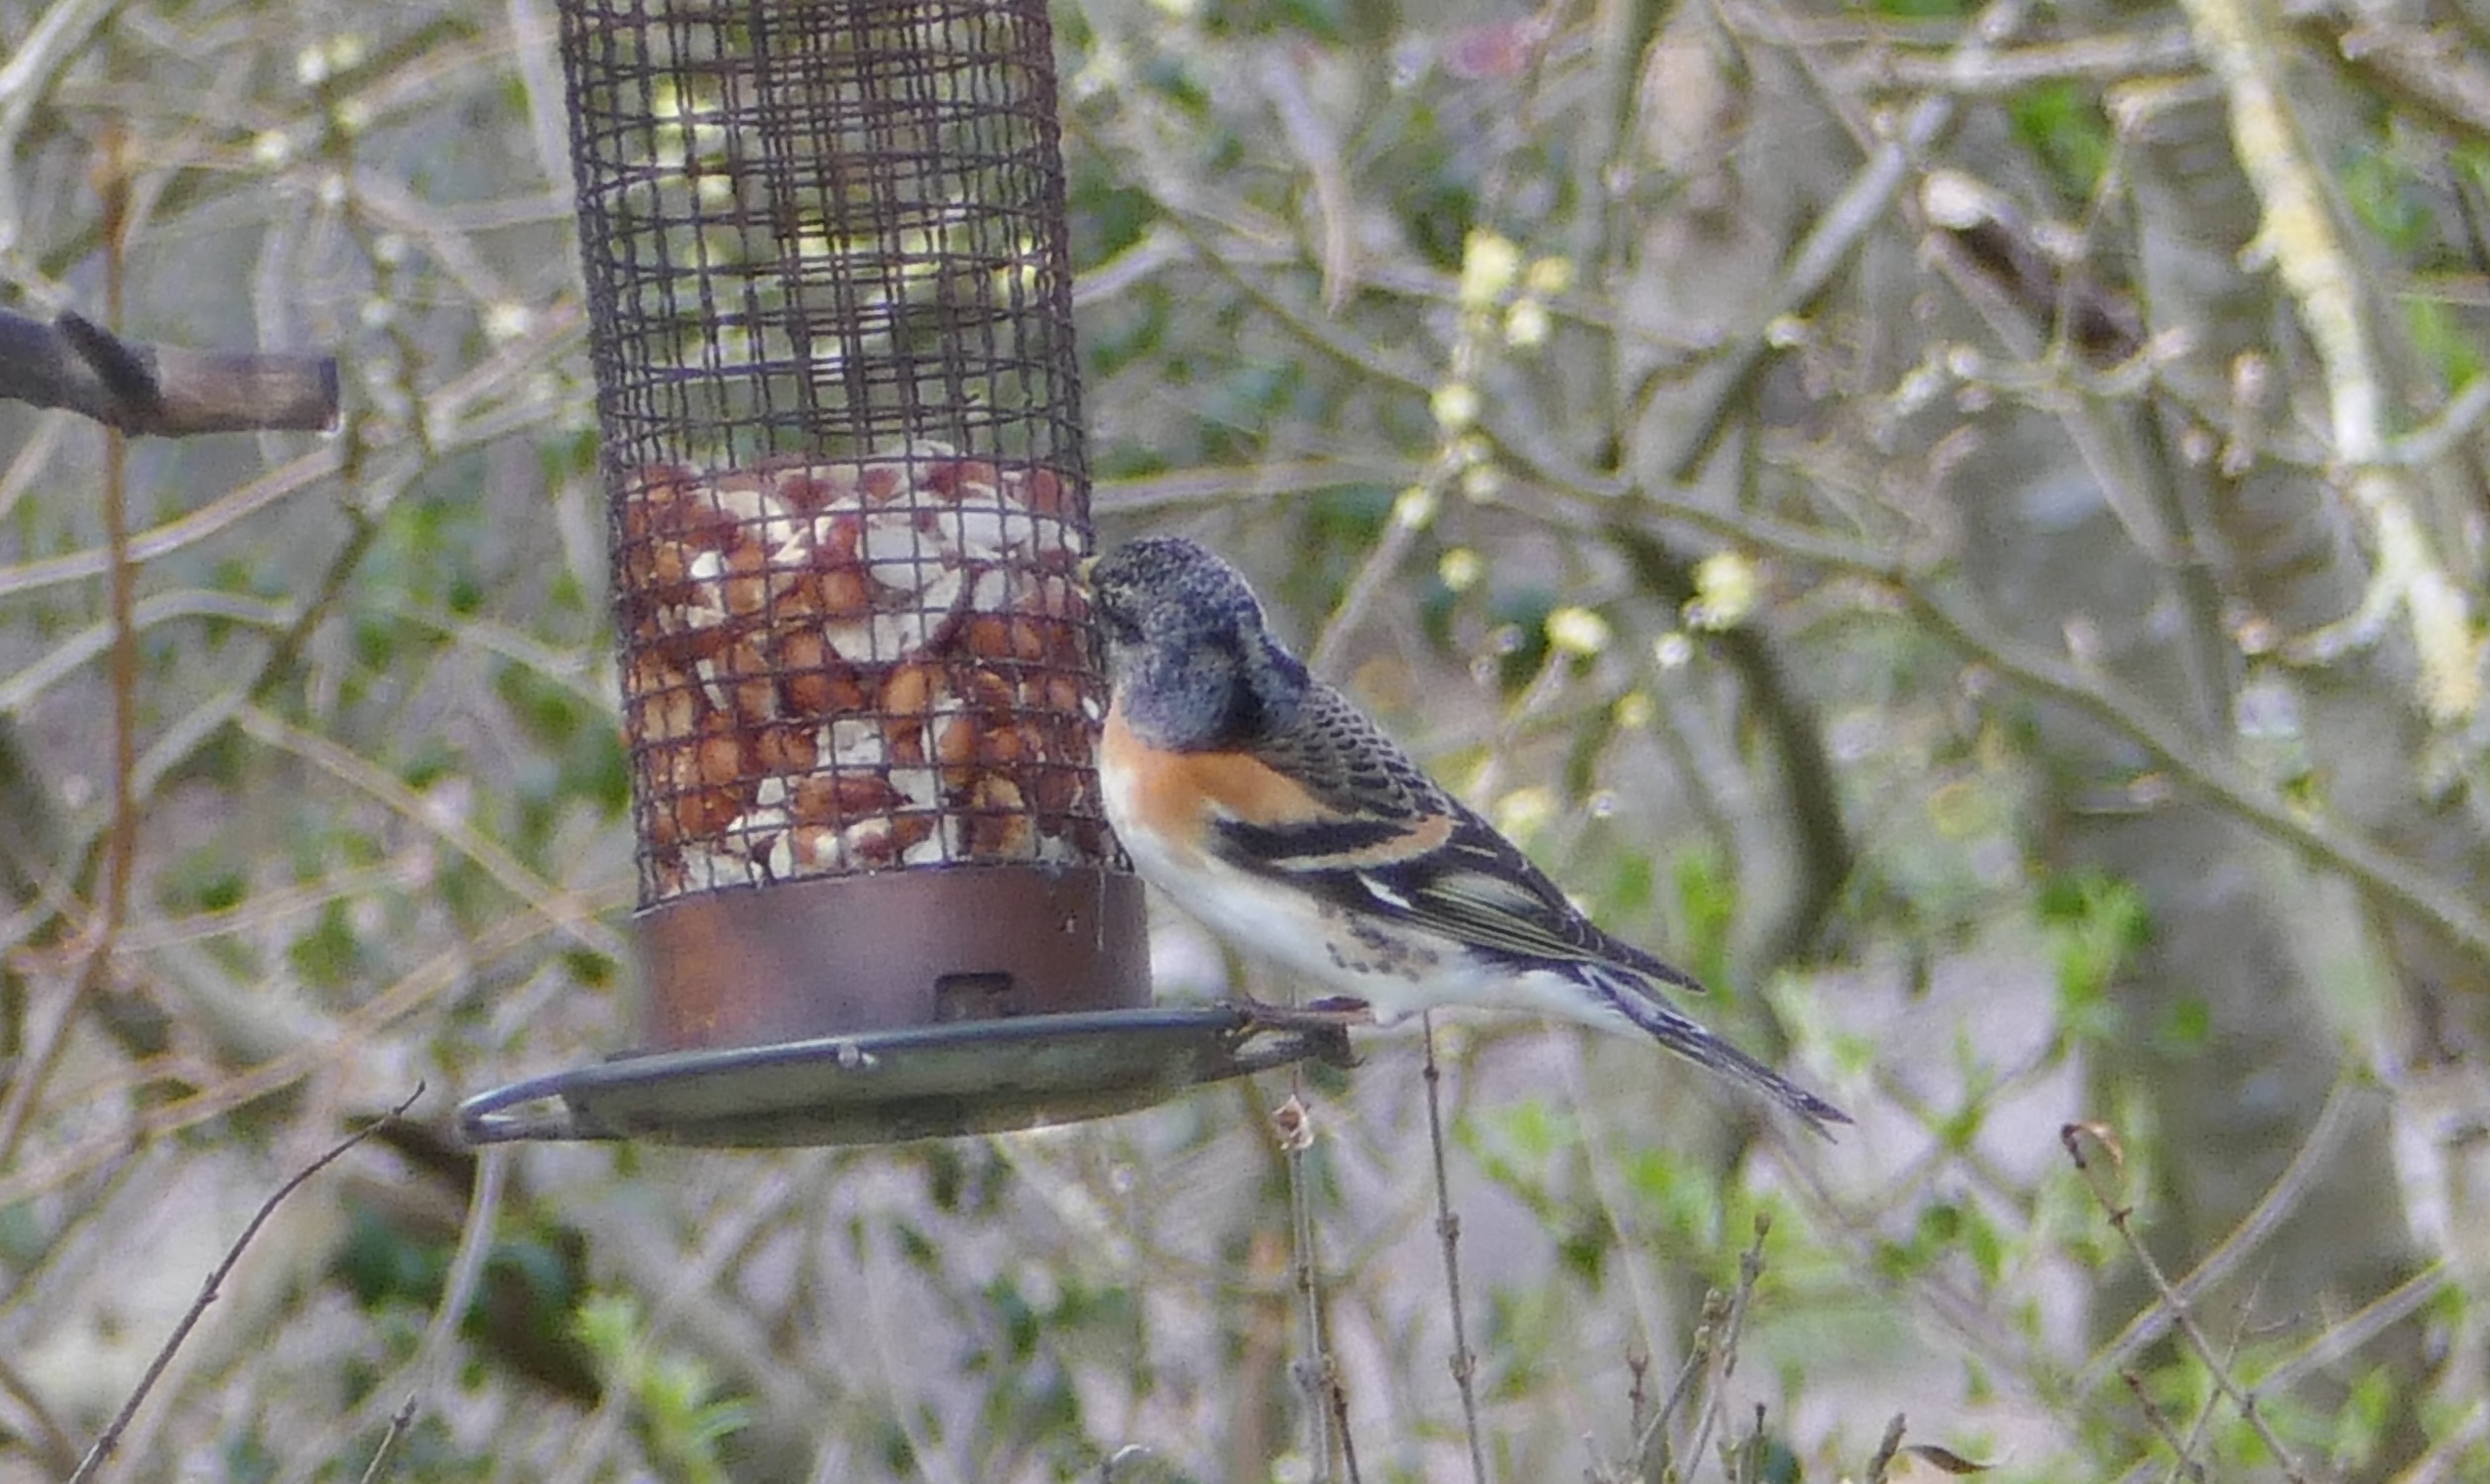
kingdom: Animalia
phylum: Chordata
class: Aves
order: Passeriformes
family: Fringillidae
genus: Fringilla
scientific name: Fringilla montifringilla
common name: Kvækerfinke
